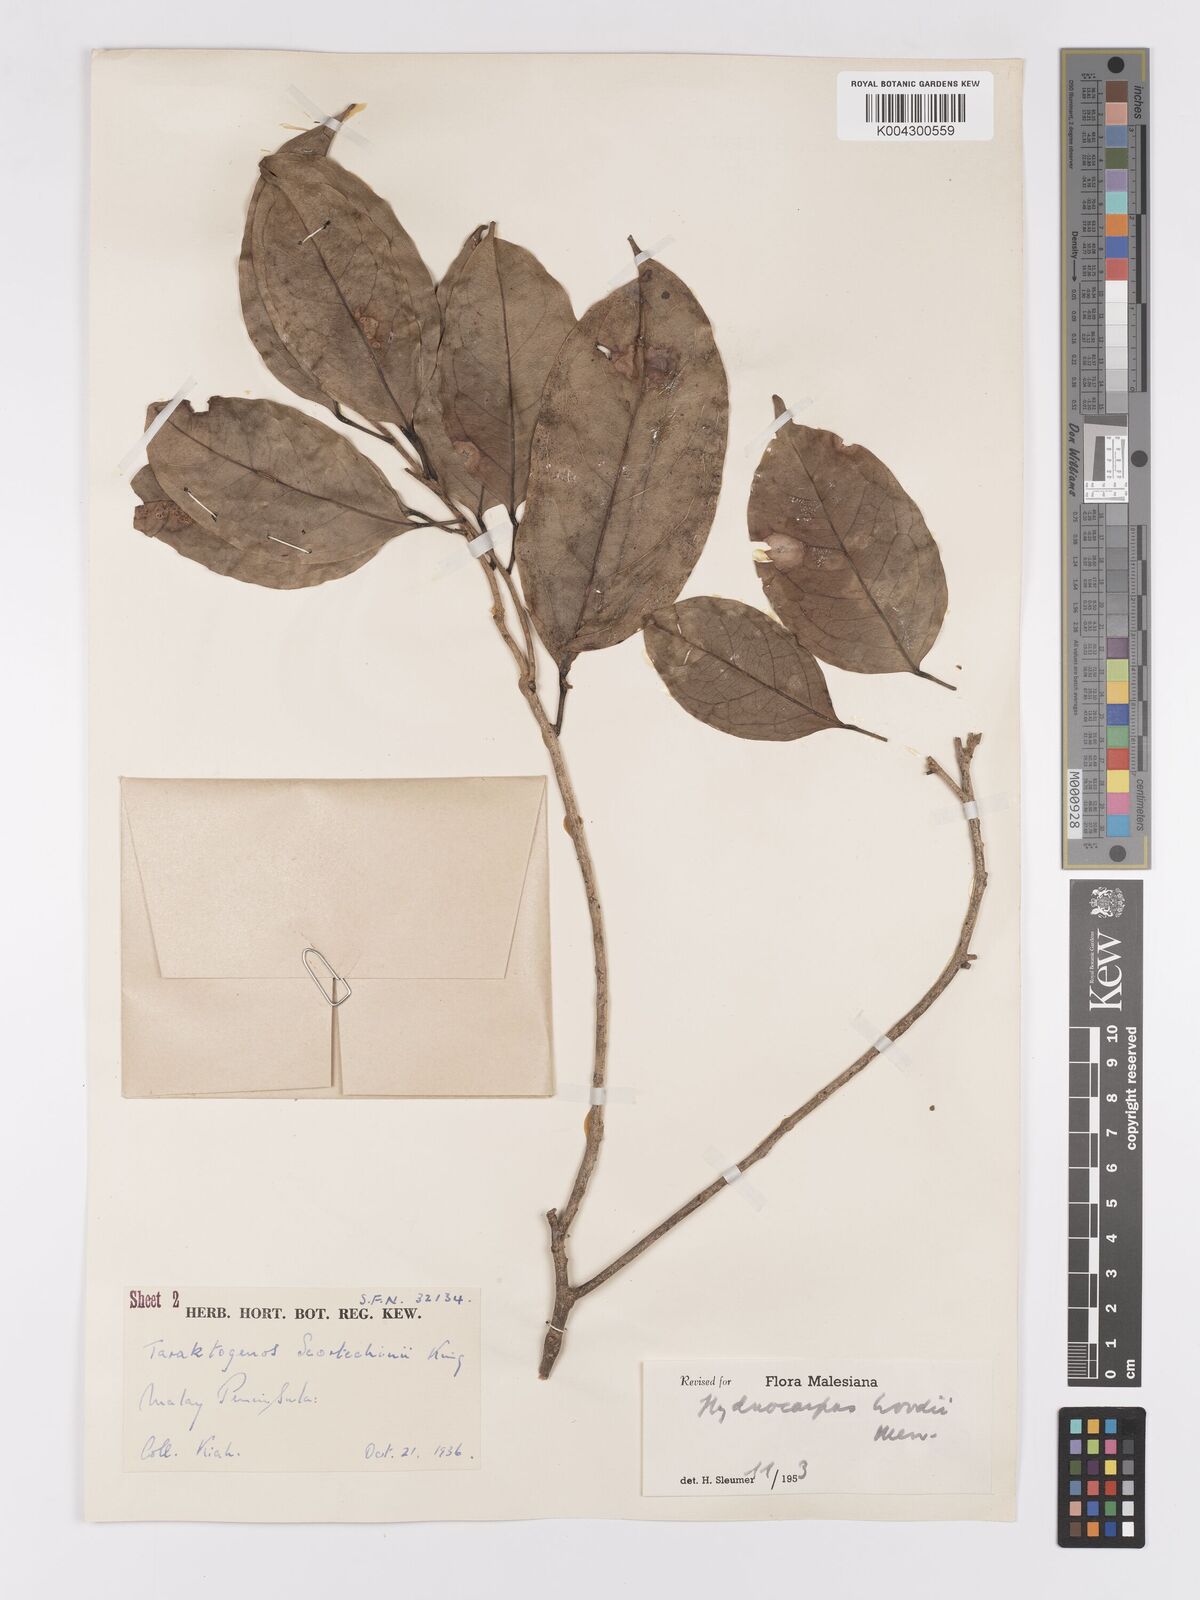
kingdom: Plantae
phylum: Tracheophyta
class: Magnoliopsida
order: Malpighiales
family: Achariaceae
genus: Hydnocarpus
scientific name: Hydnocarpus woodii
